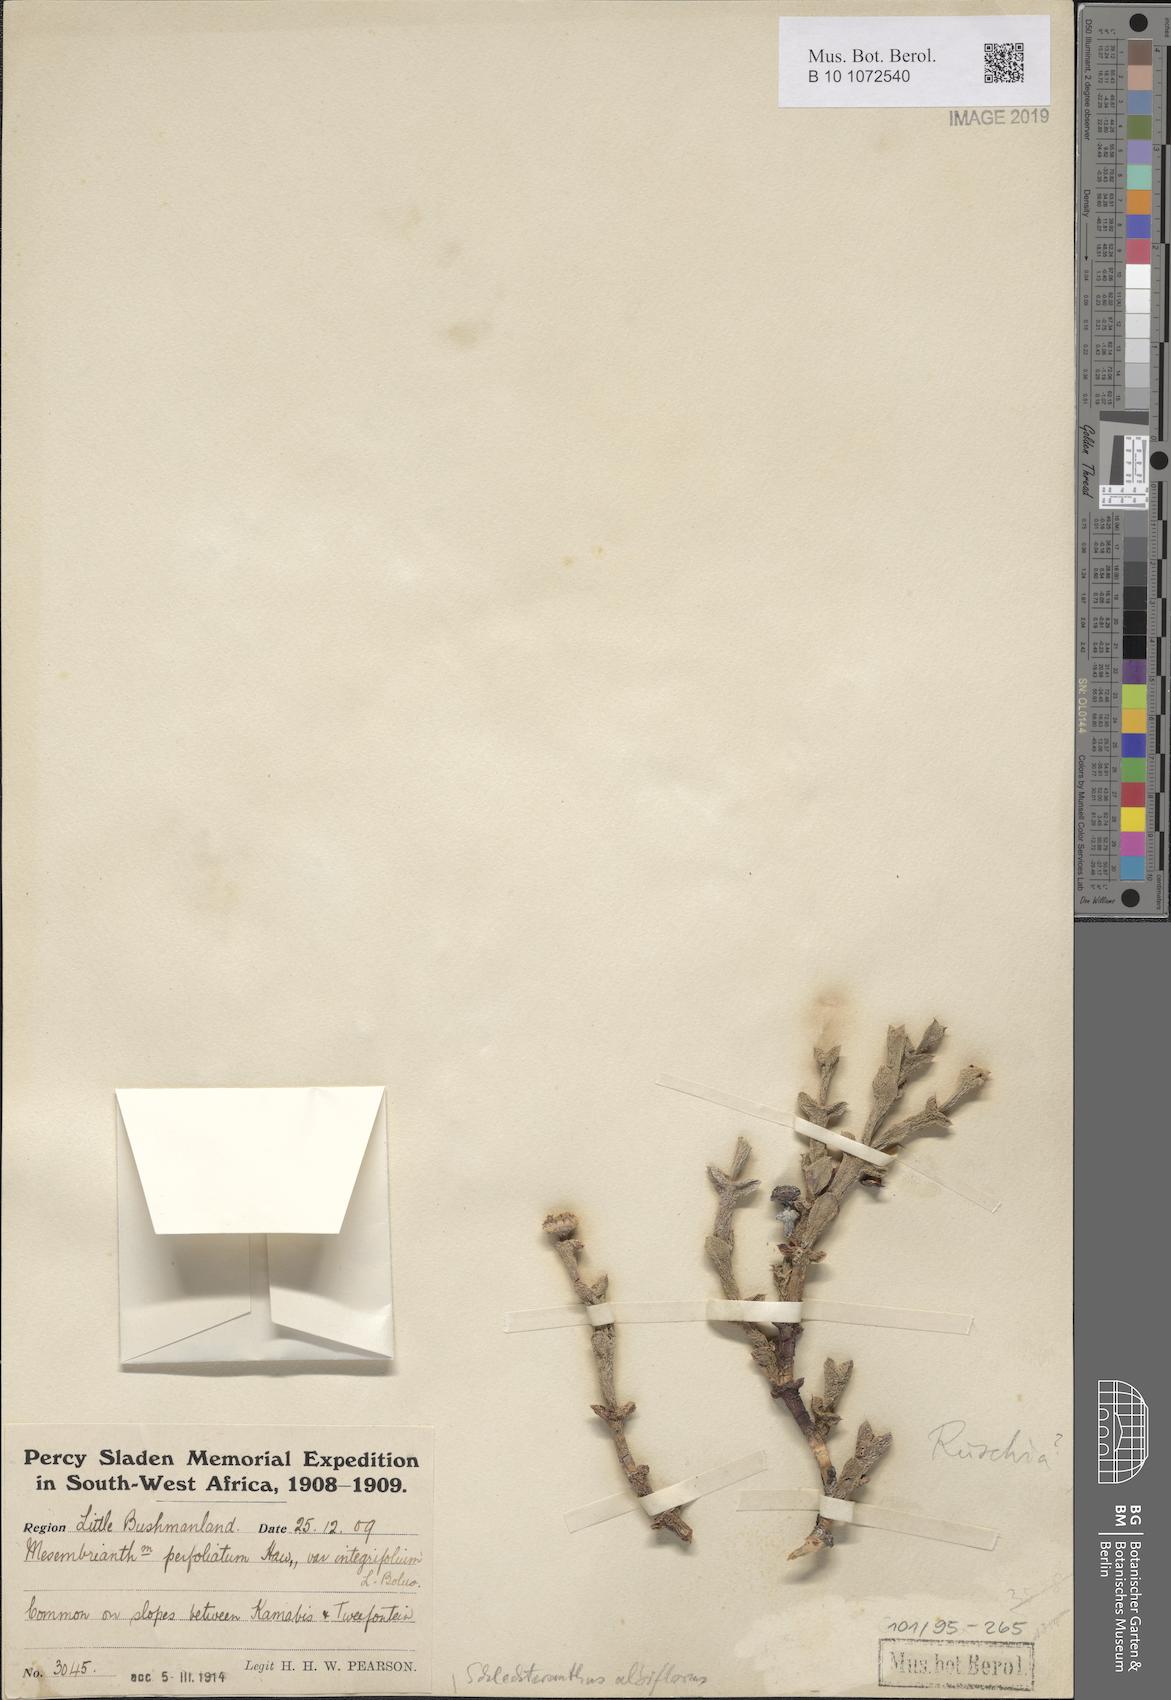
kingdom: Plantae
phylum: Tracheophyta
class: Magnoliopsida
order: Caryophyllales
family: Aizoaceae
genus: Schlechteranthus
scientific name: Schlechteranthus albiflorus
